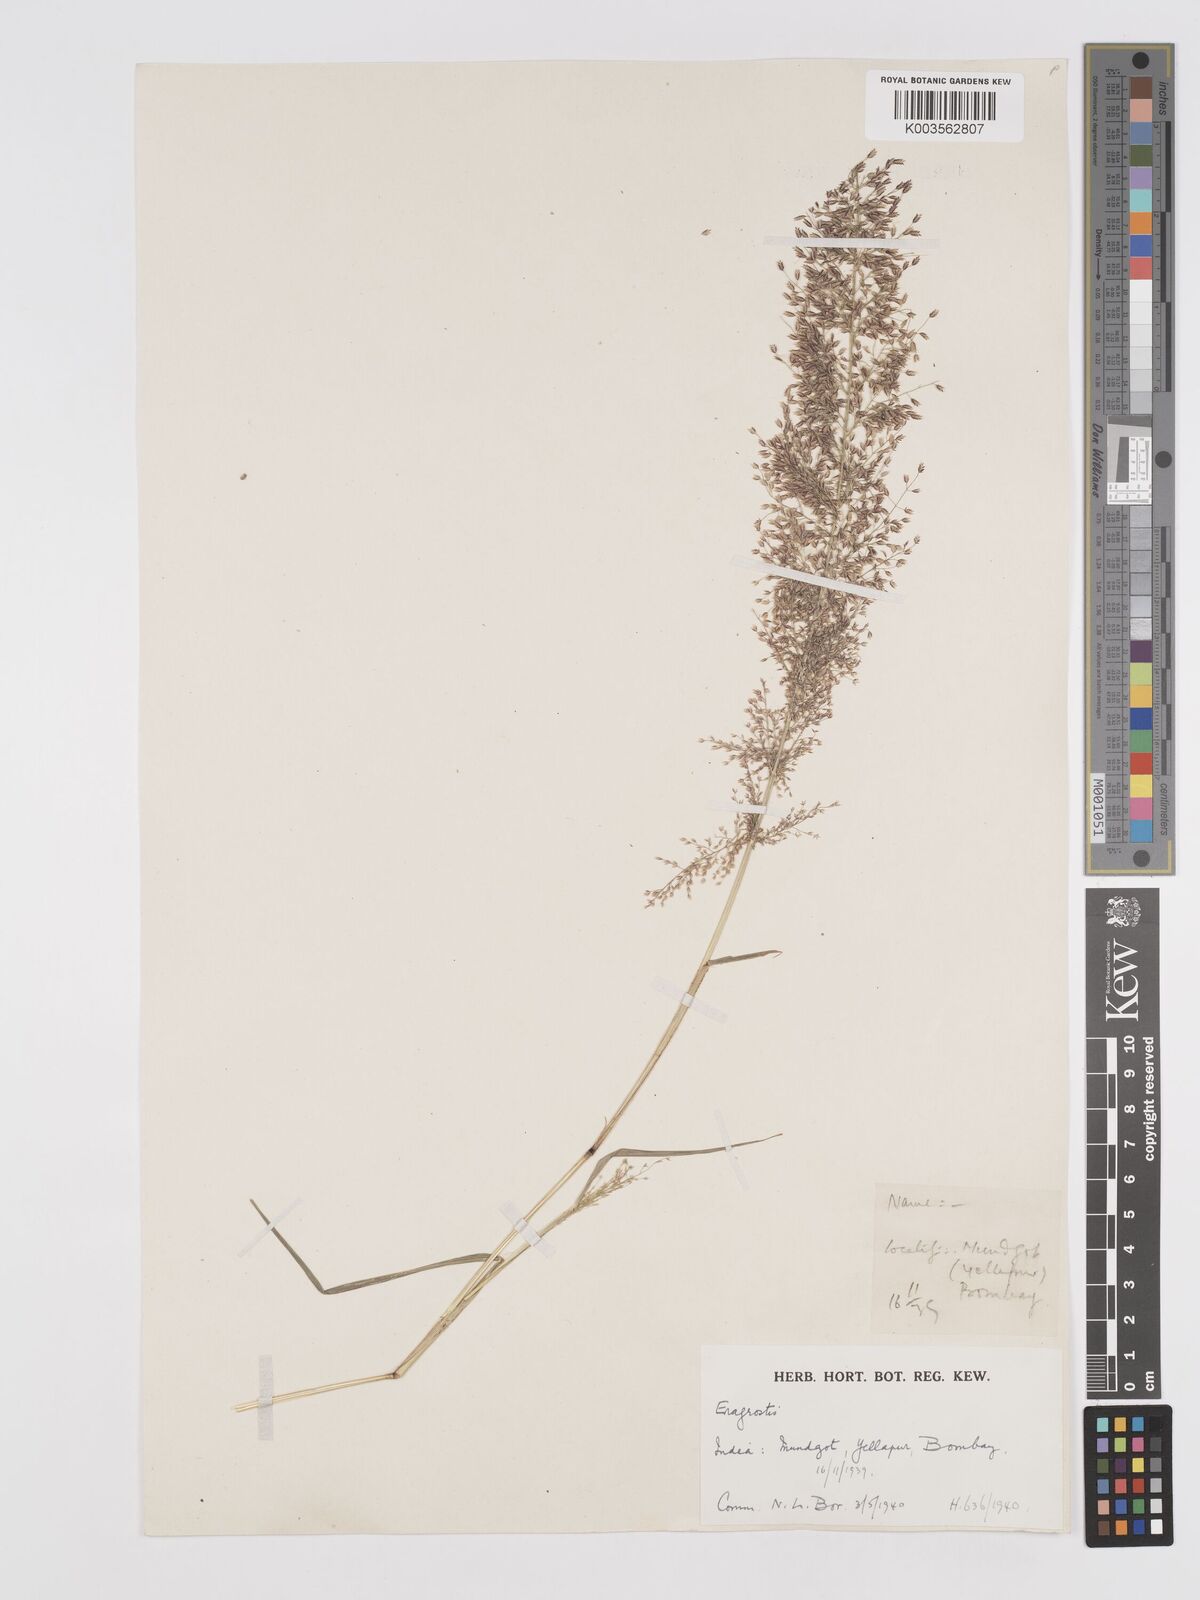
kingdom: Plantae
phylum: Tracheophyta
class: Liliopsida
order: Poales
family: Poaceae
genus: Eragrostis
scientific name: Eragrostis viscosa
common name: Sticky love grass
